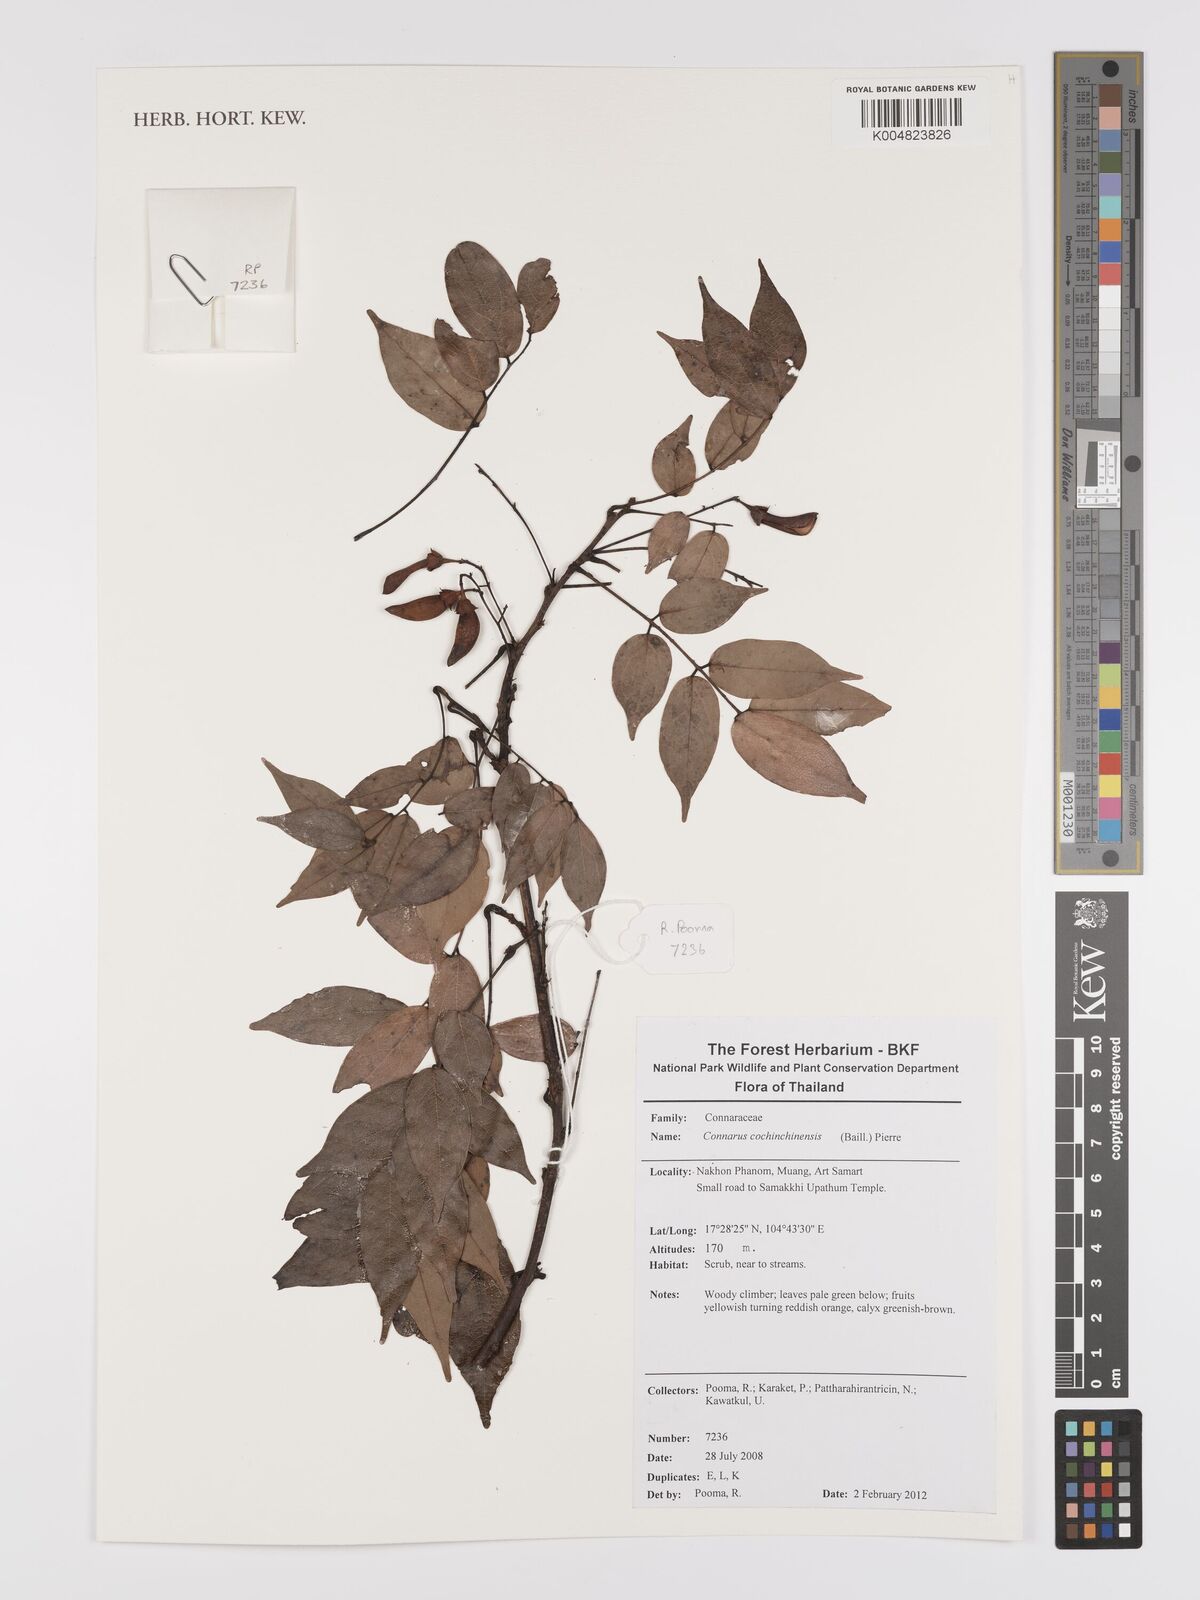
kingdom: Plantae
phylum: Tracheophyta
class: Magnoliopsida
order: Oxalidales
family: Connaraceae
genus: Connarus
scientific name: Connarus cochinchinensis
